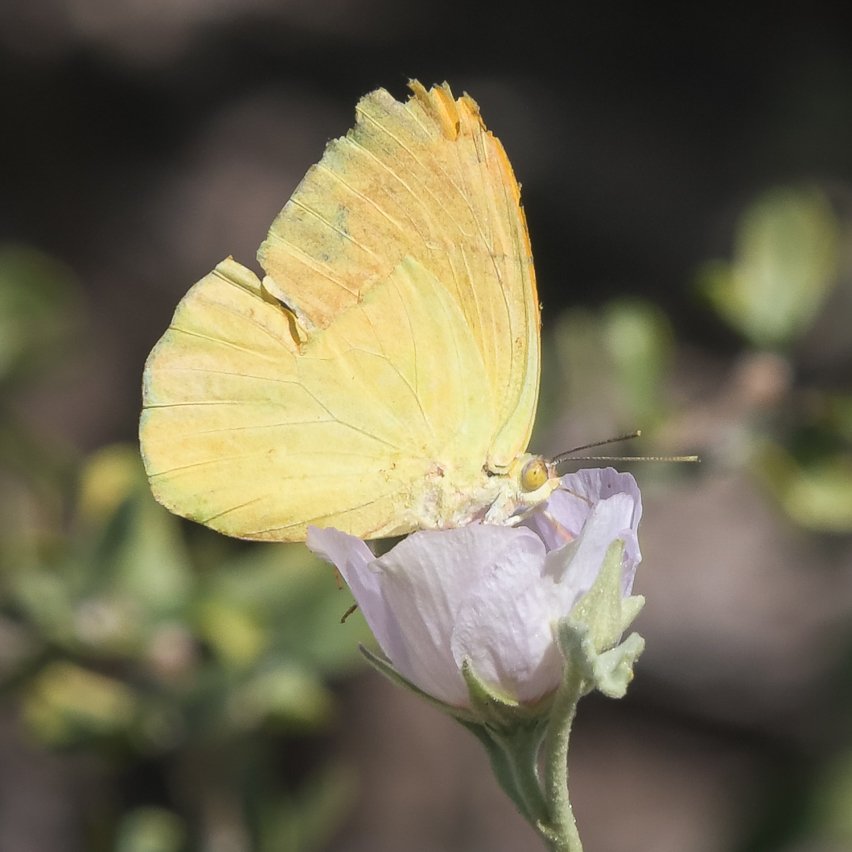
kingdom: Animalia
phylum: Arthropoda
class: Insecta
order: Lepidoptera
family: Pieridae
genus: Phoebis
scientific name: Phoebis agarithe
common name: Large Orange Sulphur
